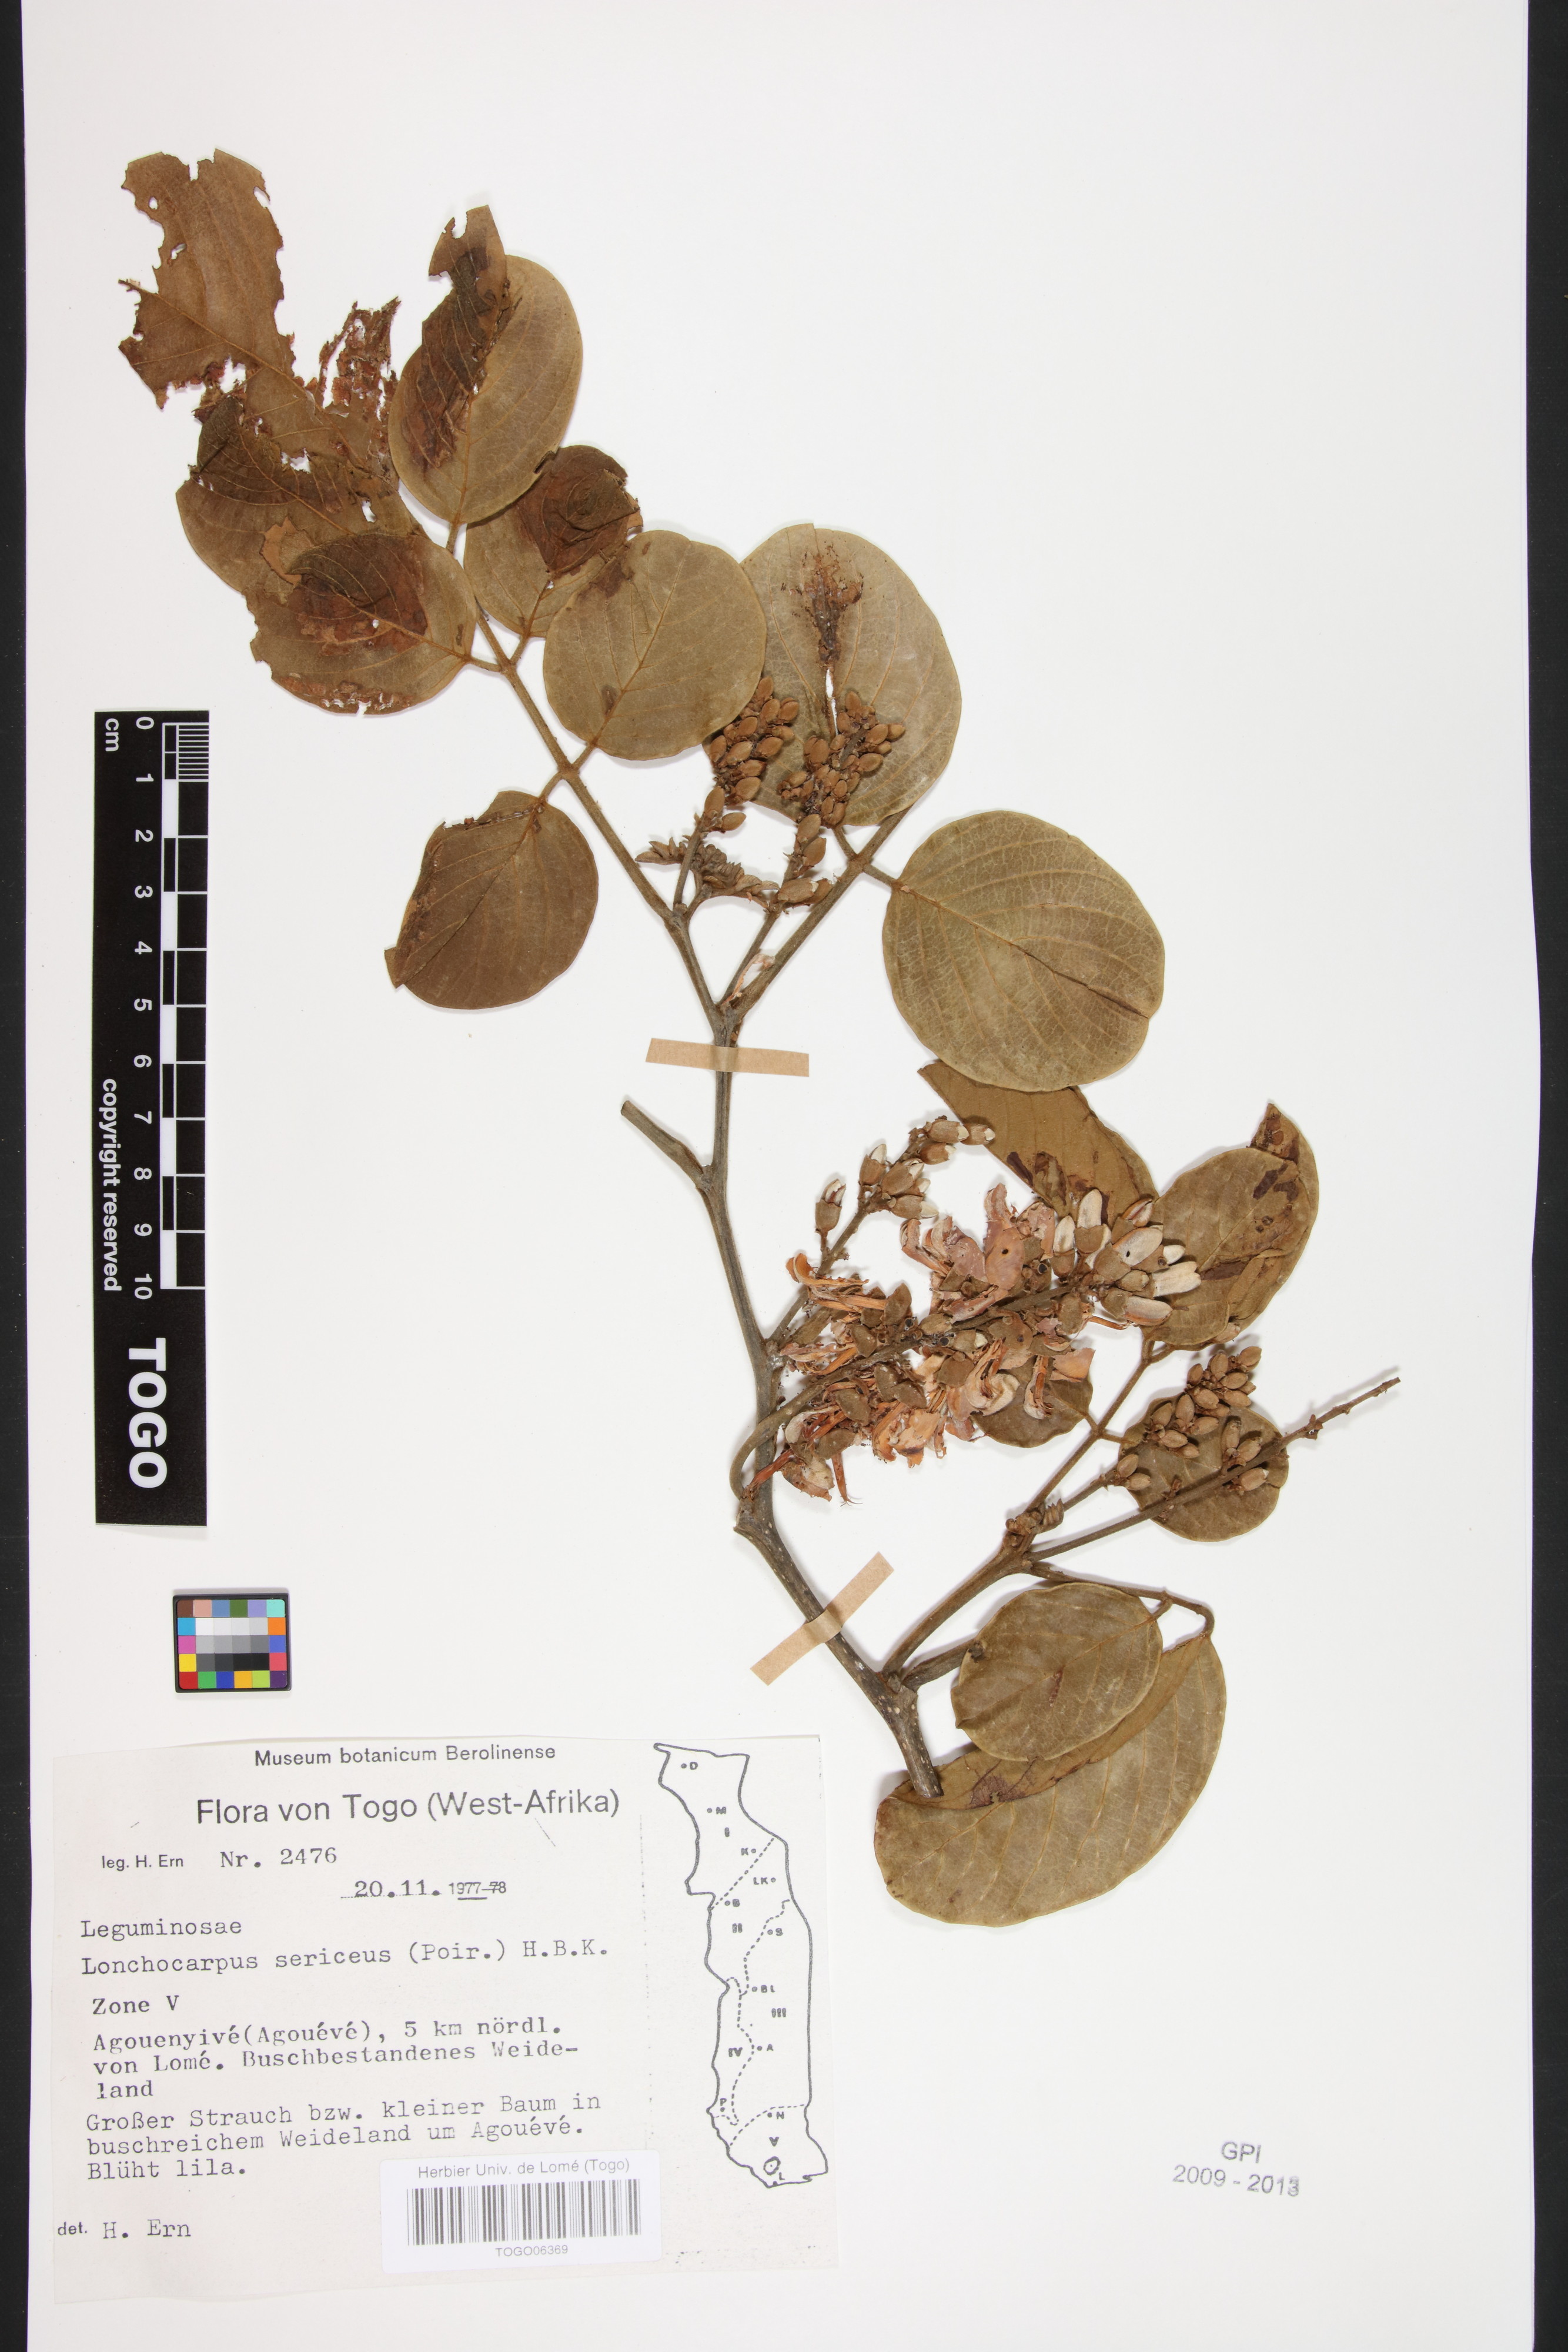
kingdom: Plantae
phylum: Tracheophyta
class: Magnoliopsida
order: Fabales
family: Fabaceae
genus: Lonchocarpus
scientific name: Lonchocarpus sericeus
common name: Savonette
